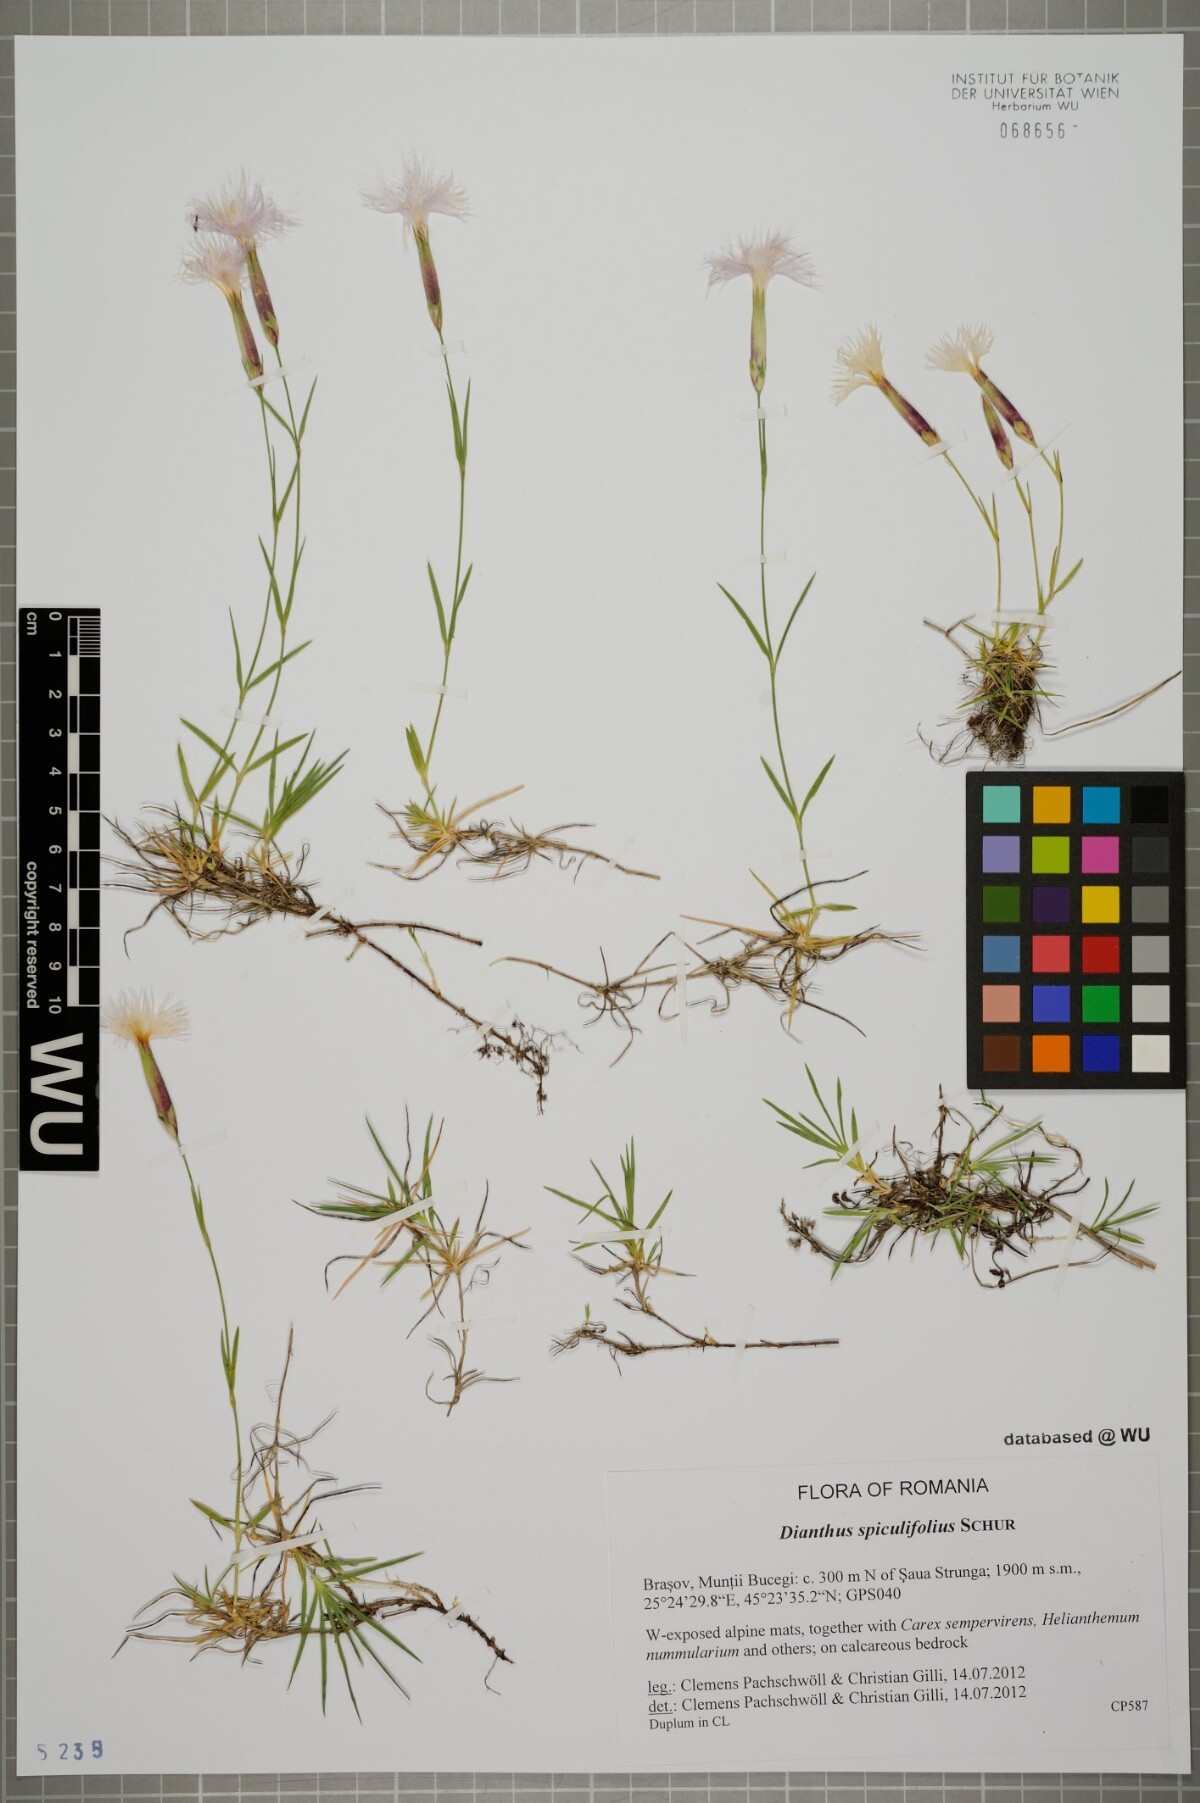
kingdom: Plantae
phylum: Tracheophyta
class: Magnoliopsida
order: Caryophyllales
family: Caryophyllaceae
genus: Dianthus
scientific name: Dianthus spiculifolius
